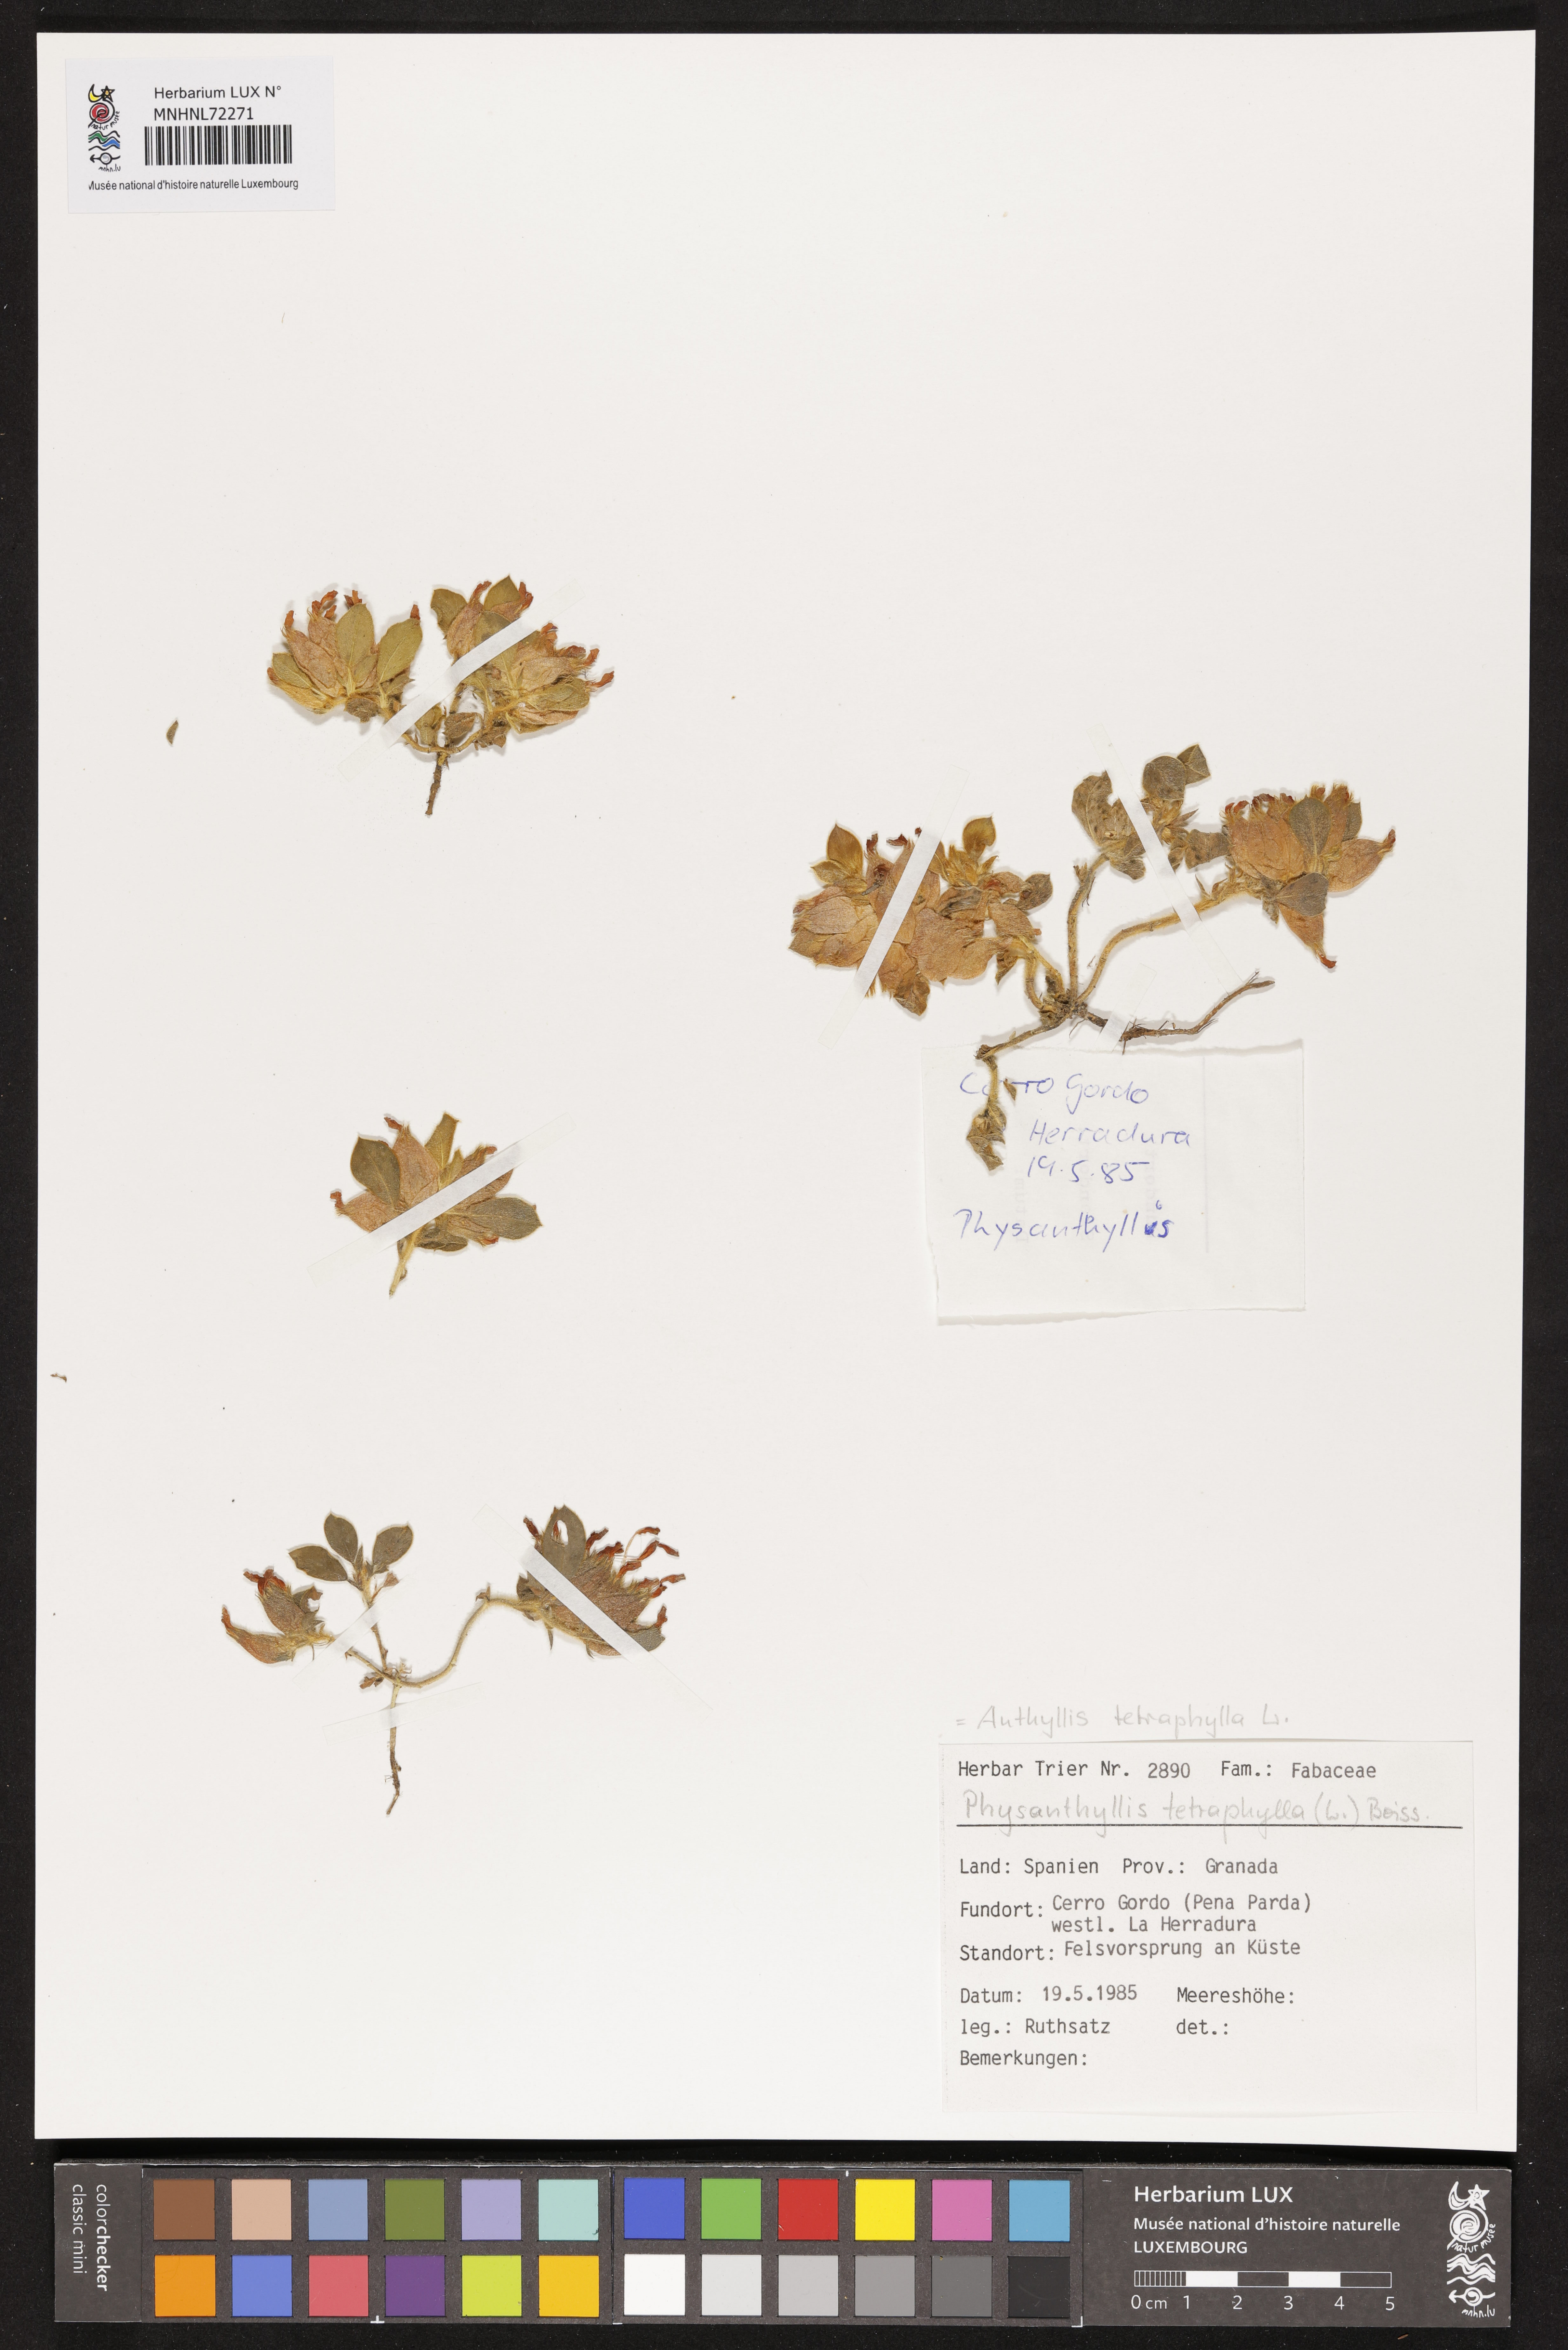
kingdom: Plantae
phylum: Tracheophyta
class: Magnoliopsida
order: Fabales
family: Fabaceae
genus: Tripodion
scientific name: Tripodion tetraphyllum
